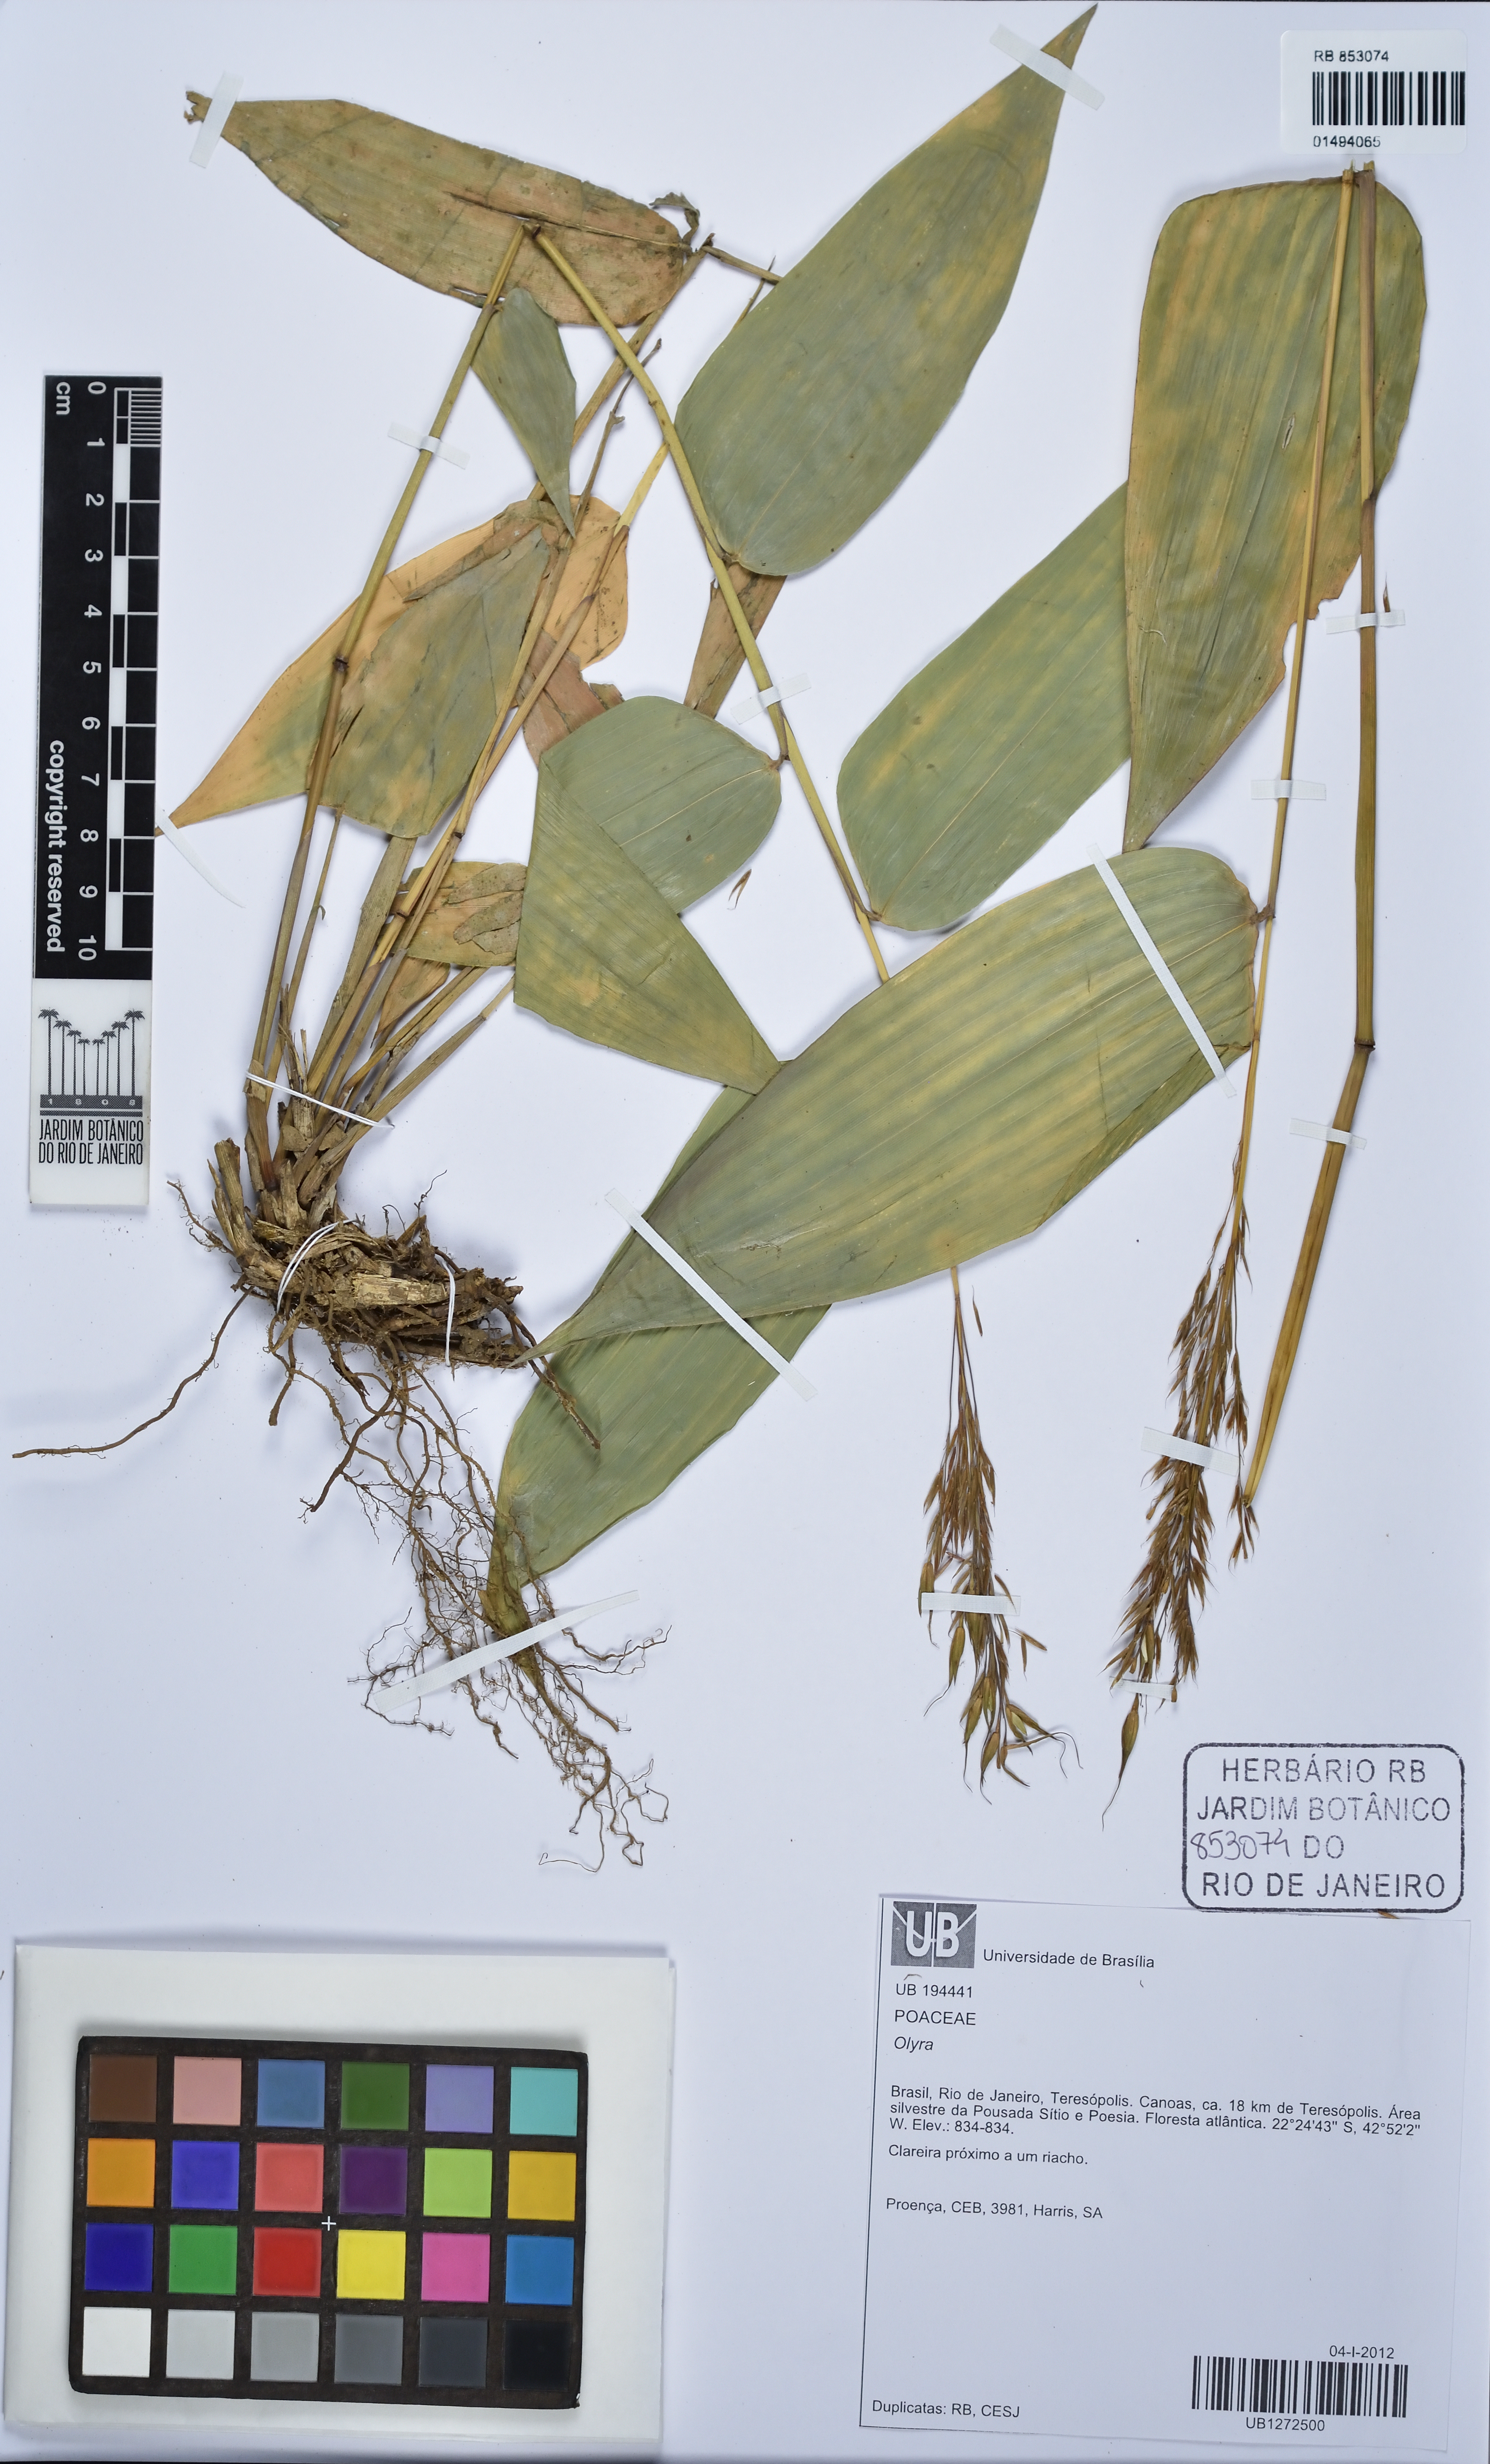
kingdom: Plantae
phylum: Tracheophyta
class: Liliopsida
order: Poales
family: Poaceae
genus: Olyra
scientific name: Olyra
